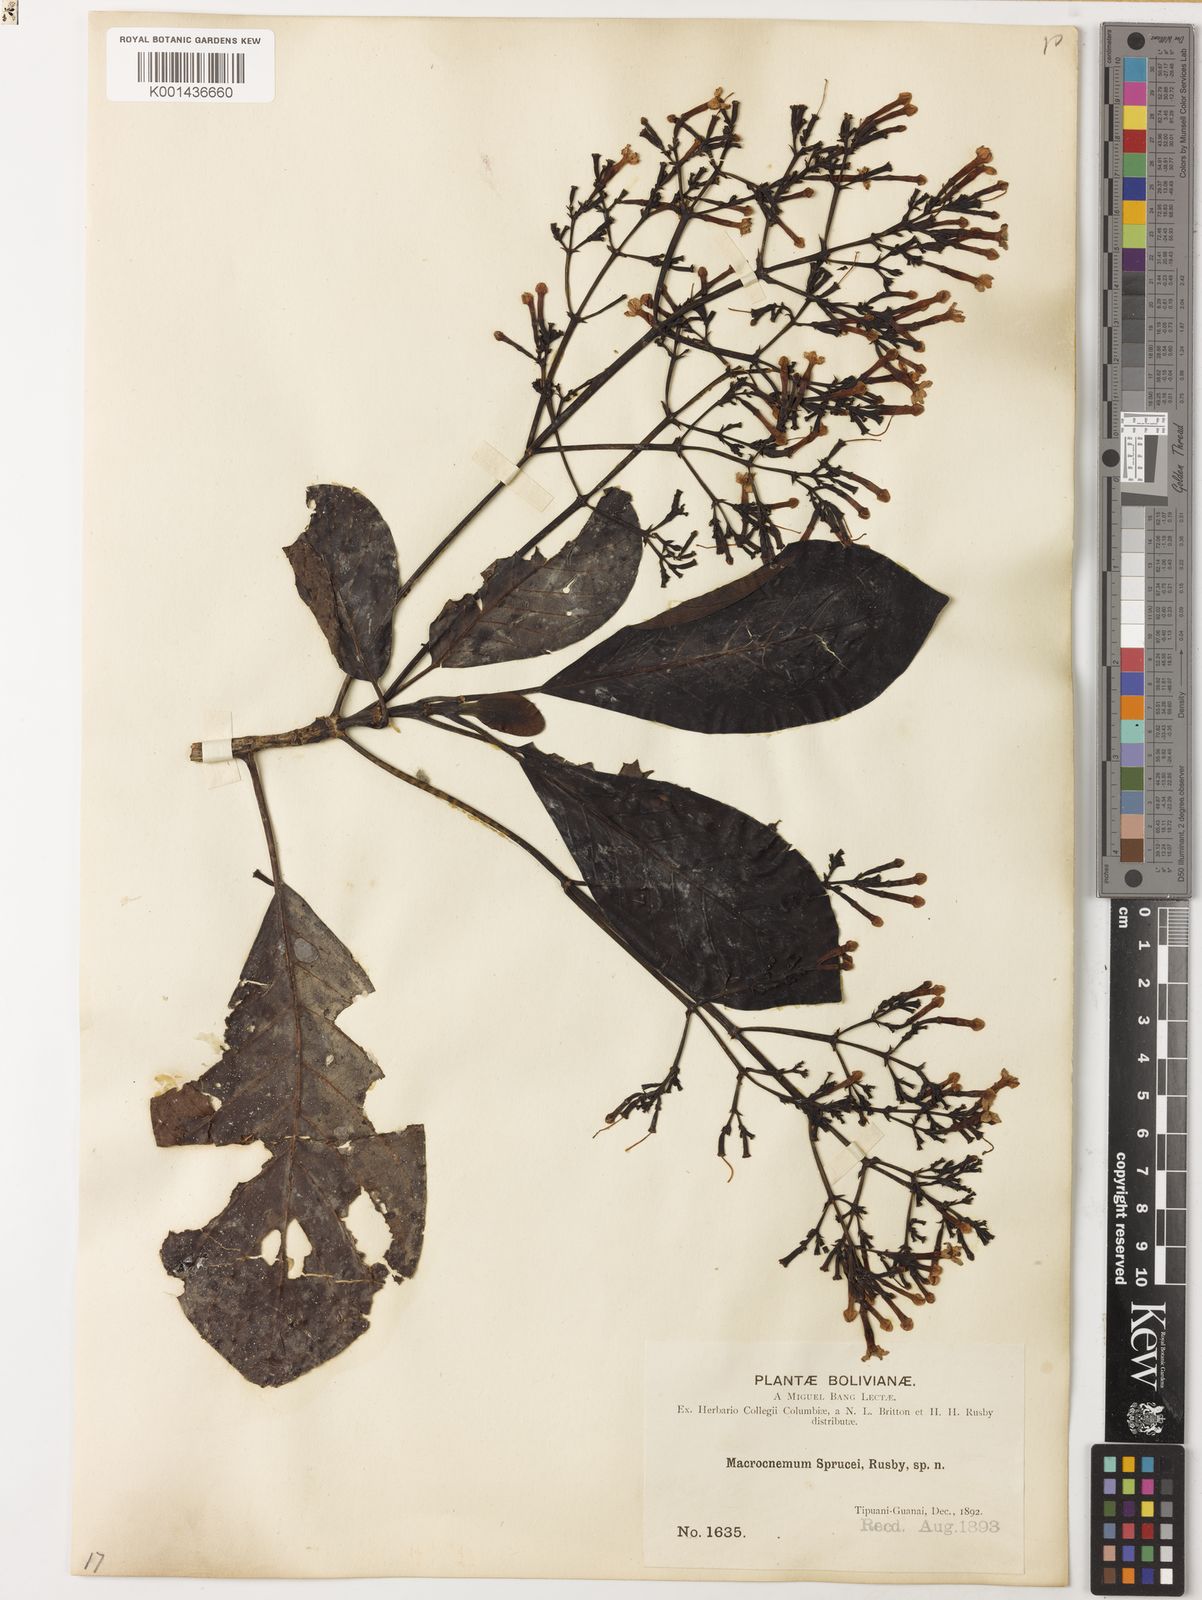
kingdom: Plantae
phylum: Tracheophyta
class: Magnoliopsida
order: Gentianales
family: Rubiaceae
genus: Macrocnemum
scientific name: Macrocnemum roseum
